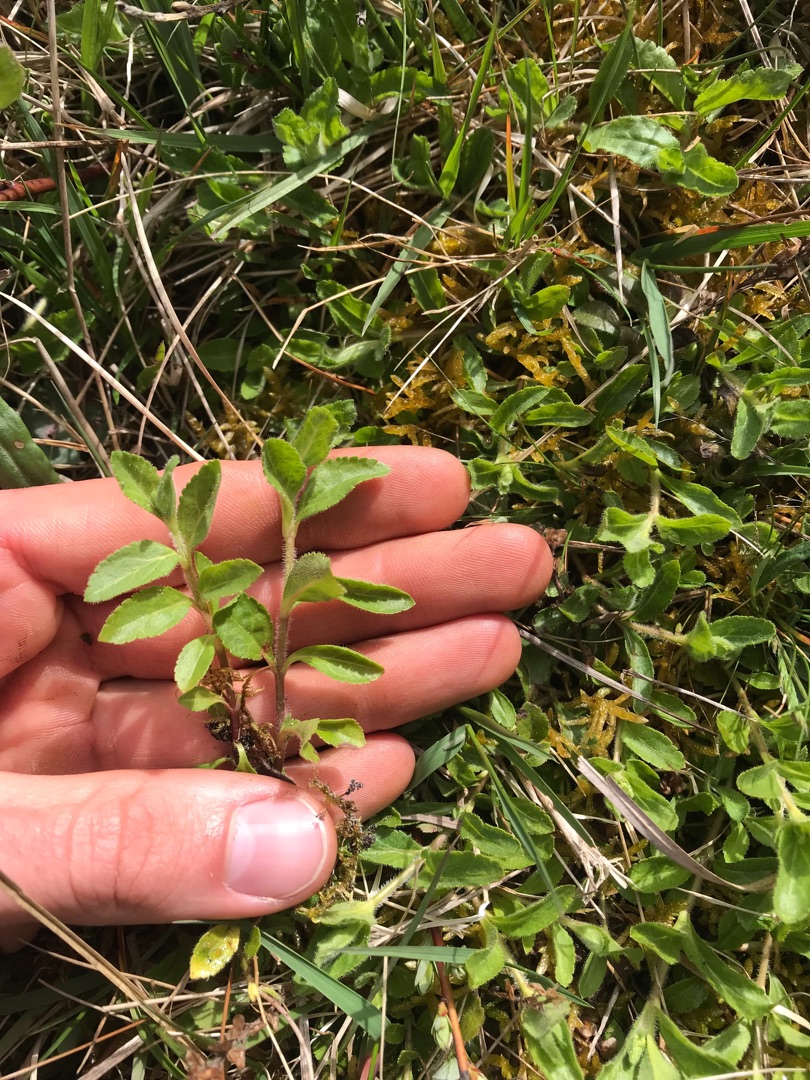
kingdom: Plantae
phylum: Tracheophyta
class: Magnoliopsida
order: Lamiales
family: Plantaginaceae
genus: Veronica
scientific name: Veronica officinalis
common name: Læge-ærenpris
